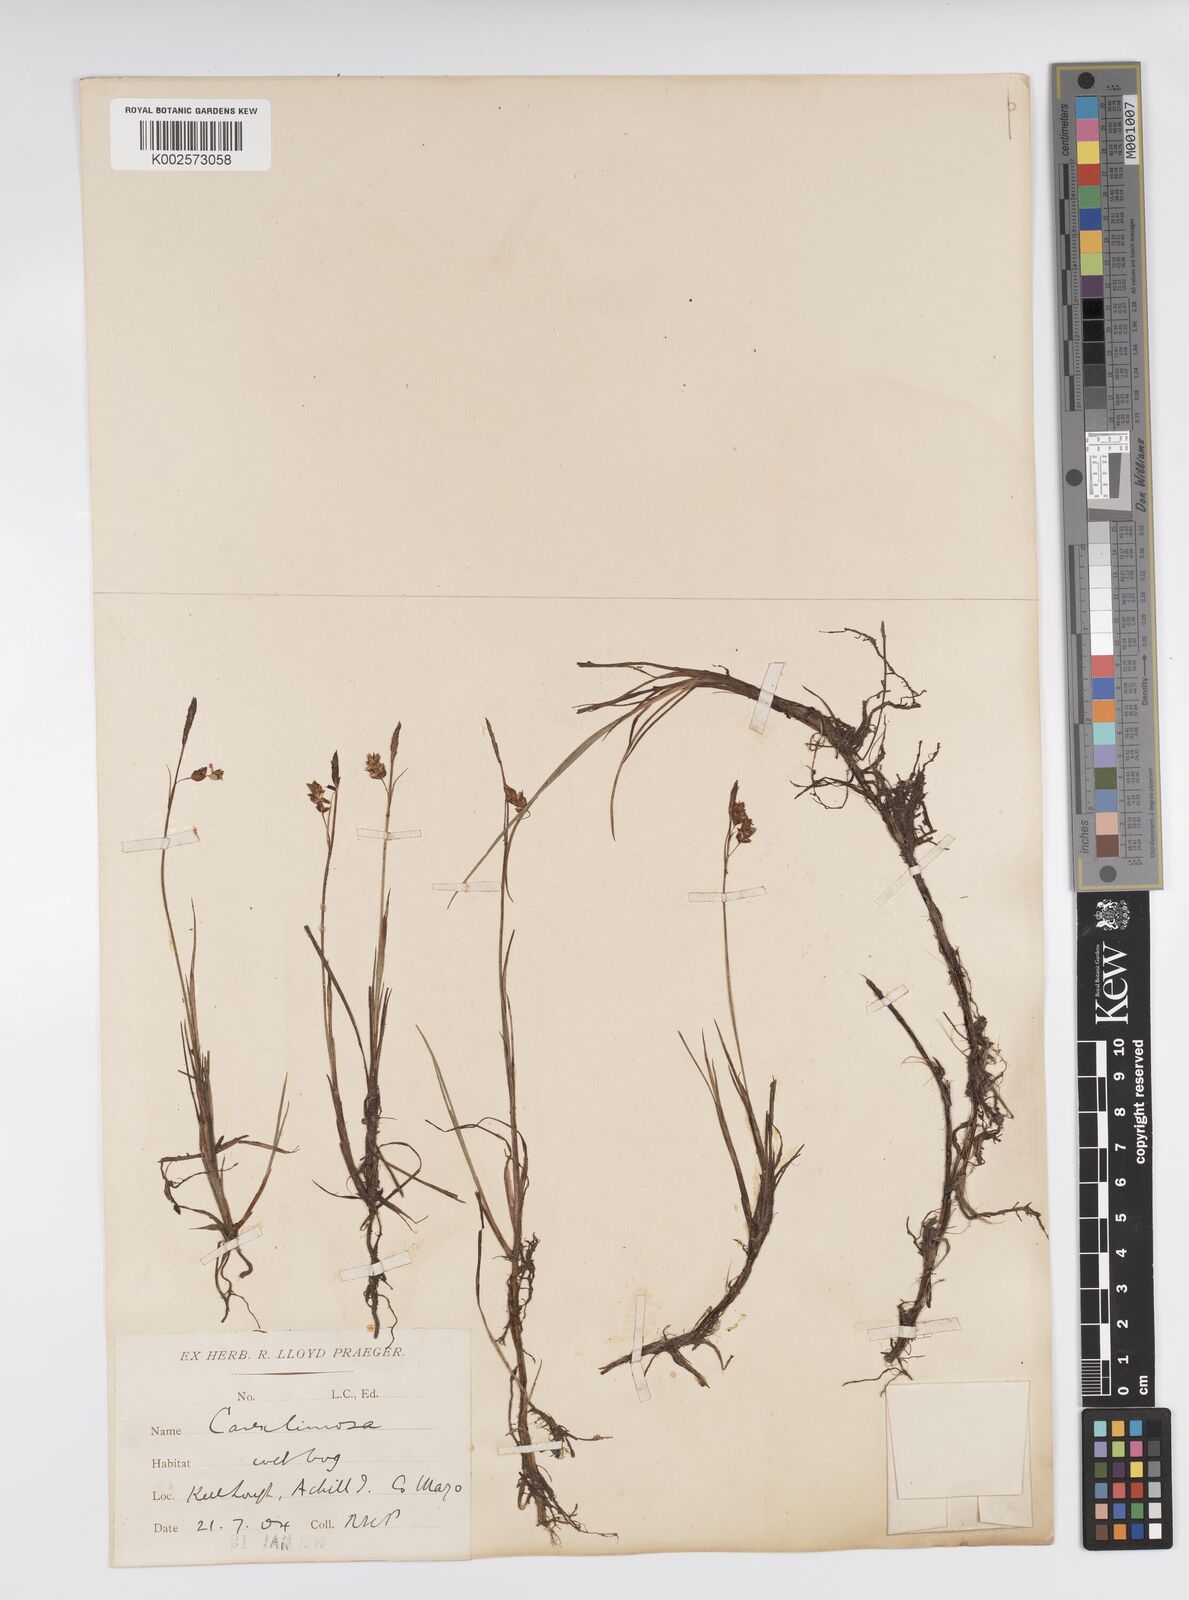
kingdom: Plantae
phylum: Tracheophyta
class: Liliopsida
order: Poales
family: Cyperaceae
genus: Carex
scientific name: Carex limosa
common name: Bog sedge
